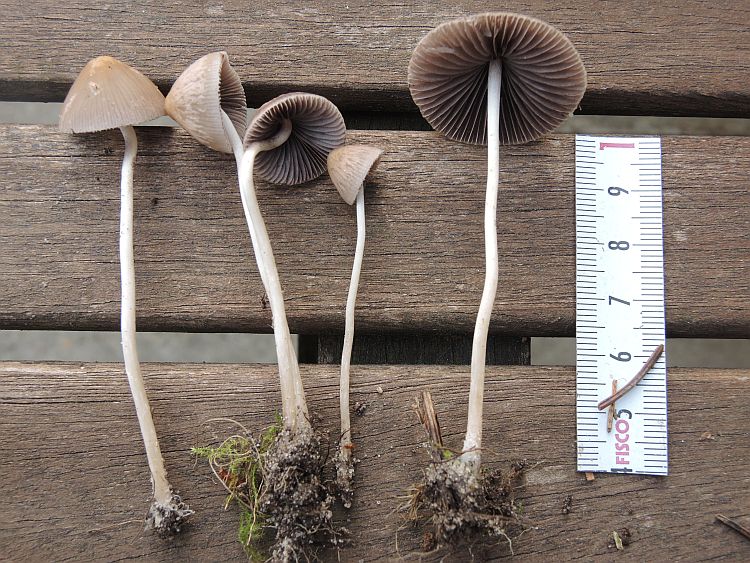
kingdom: Fungi
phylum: Basidiomycota
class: Agaricomycetes
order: Agaricales
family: Psathyrellaceae
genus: Psathyrella
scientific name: Psathyrella microrhiza
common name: rod-mørkhat
